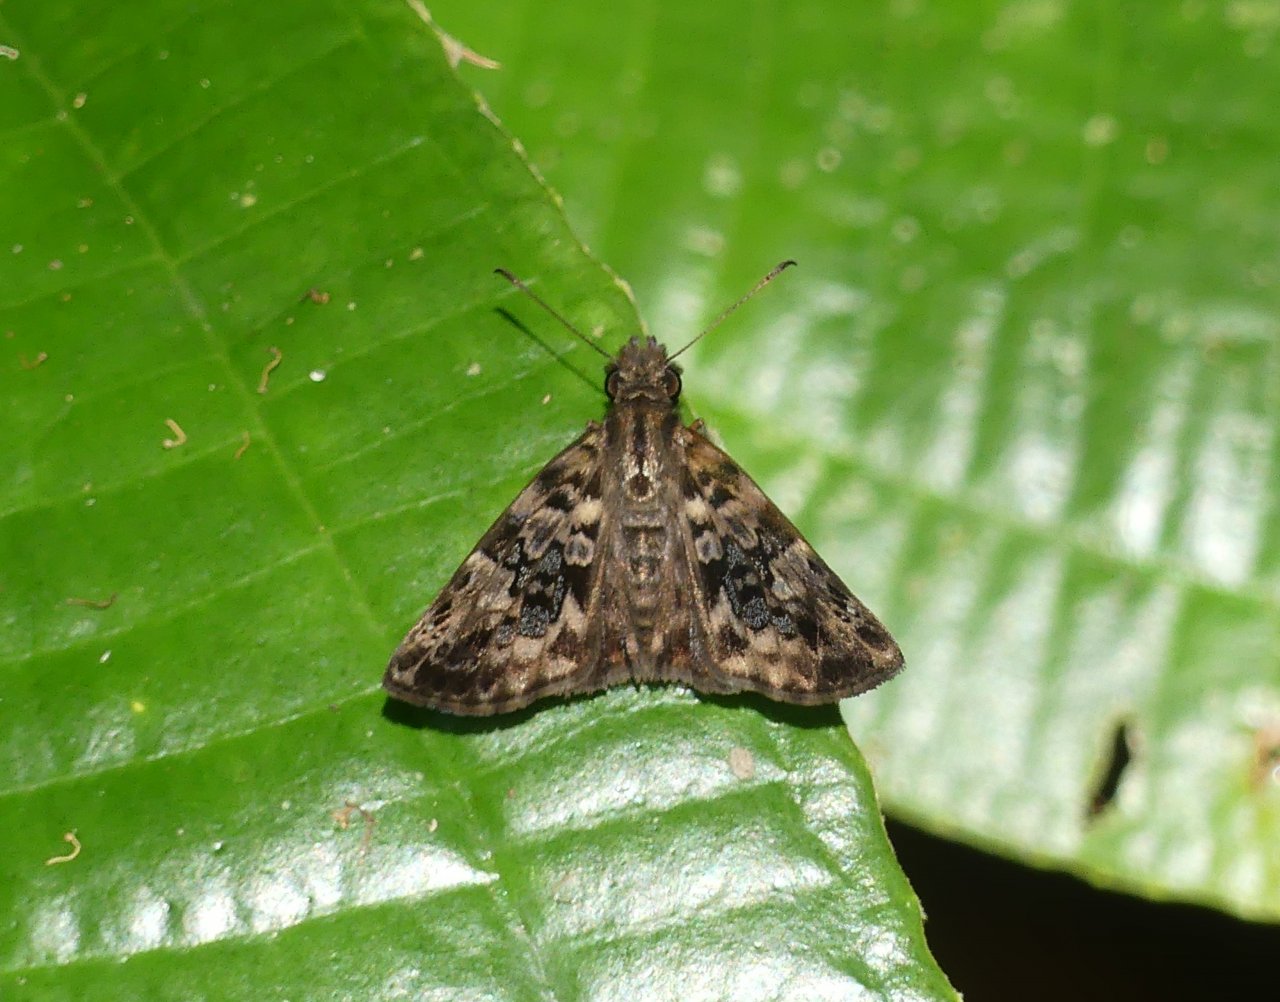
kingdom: Animalia
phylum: Arthropoda
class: Insecta
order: Lepidoptera
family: Hesperiidae
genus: Gorgythion
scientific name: Gorgythion begga
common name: Variegated Skipper
